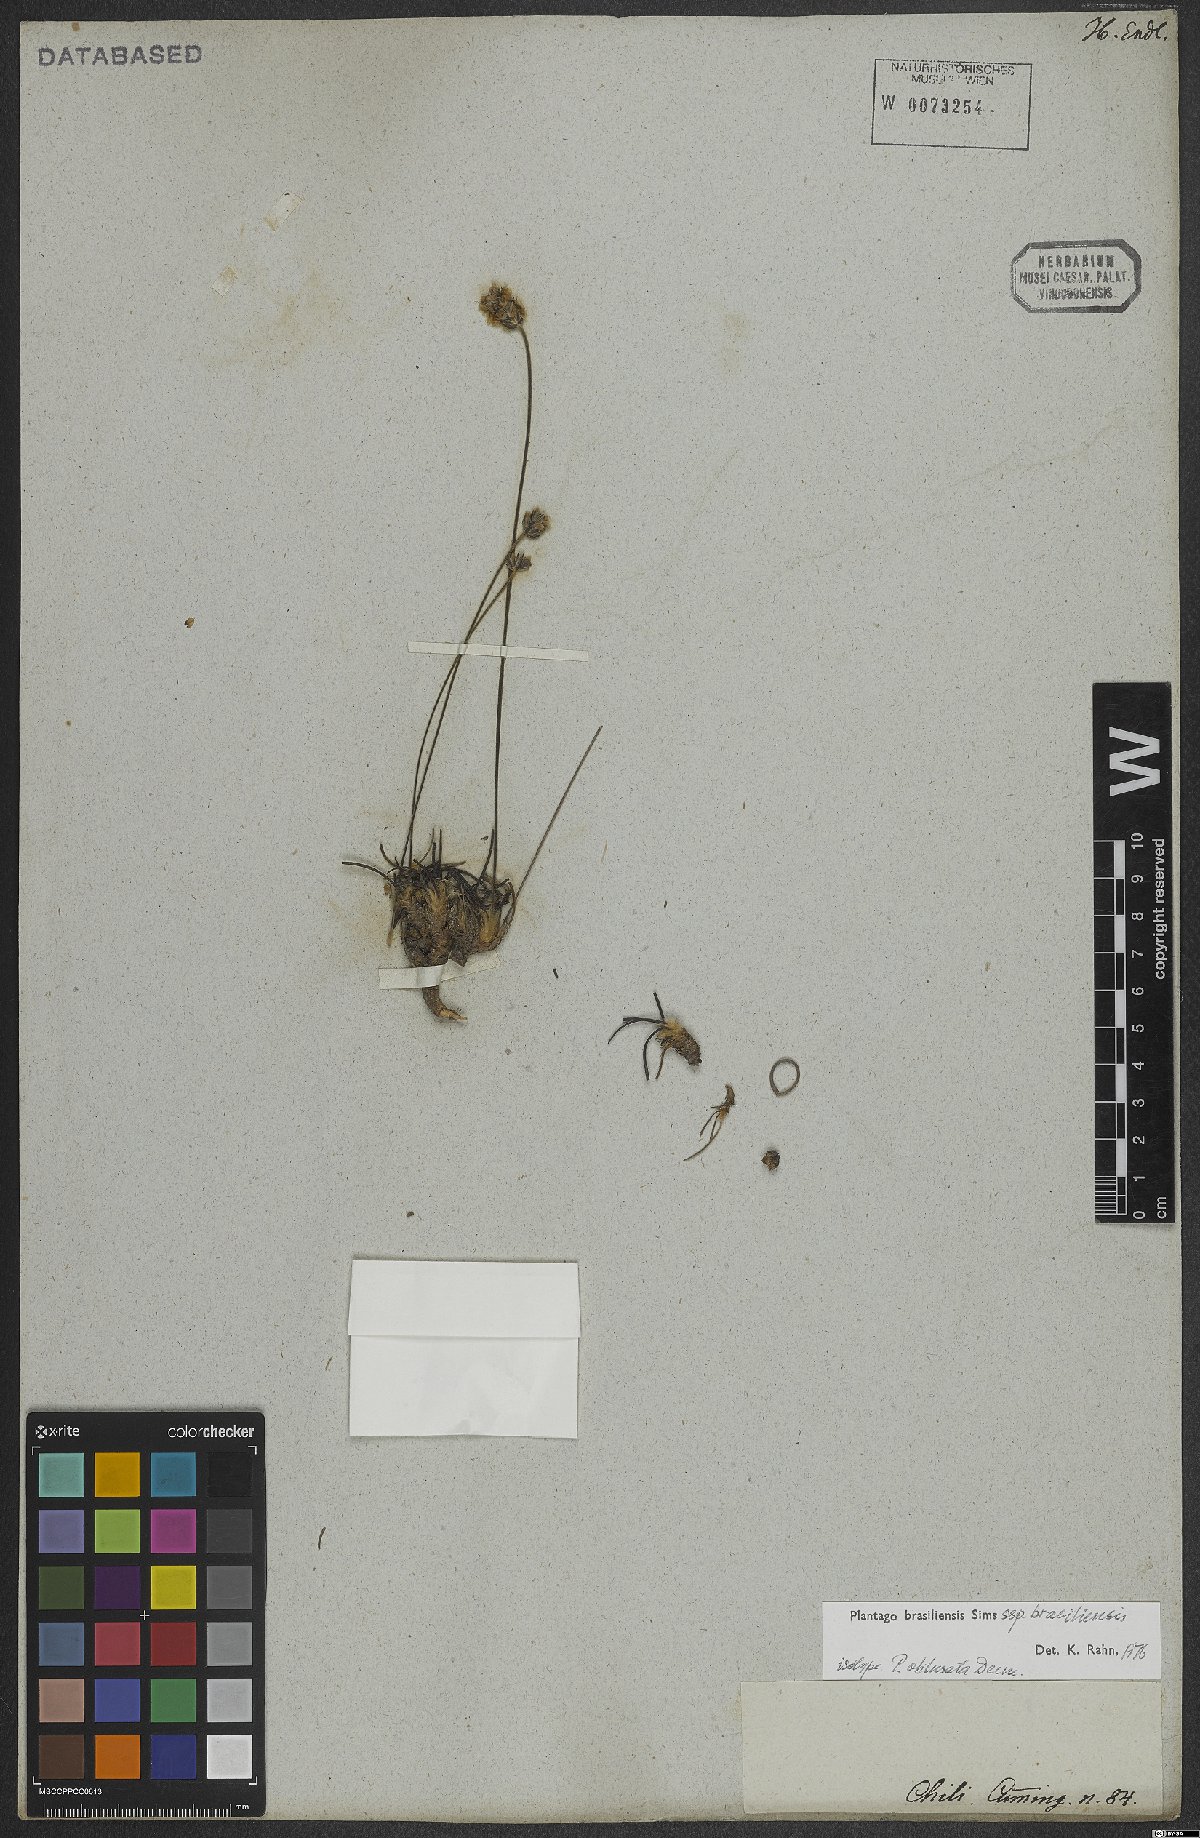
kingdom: Plantae
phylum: Tracheophyta
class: Magnoliopsida
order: Lamiales
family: Plantaginaceae
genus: Plantago
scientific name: Plantago brasiliensis
